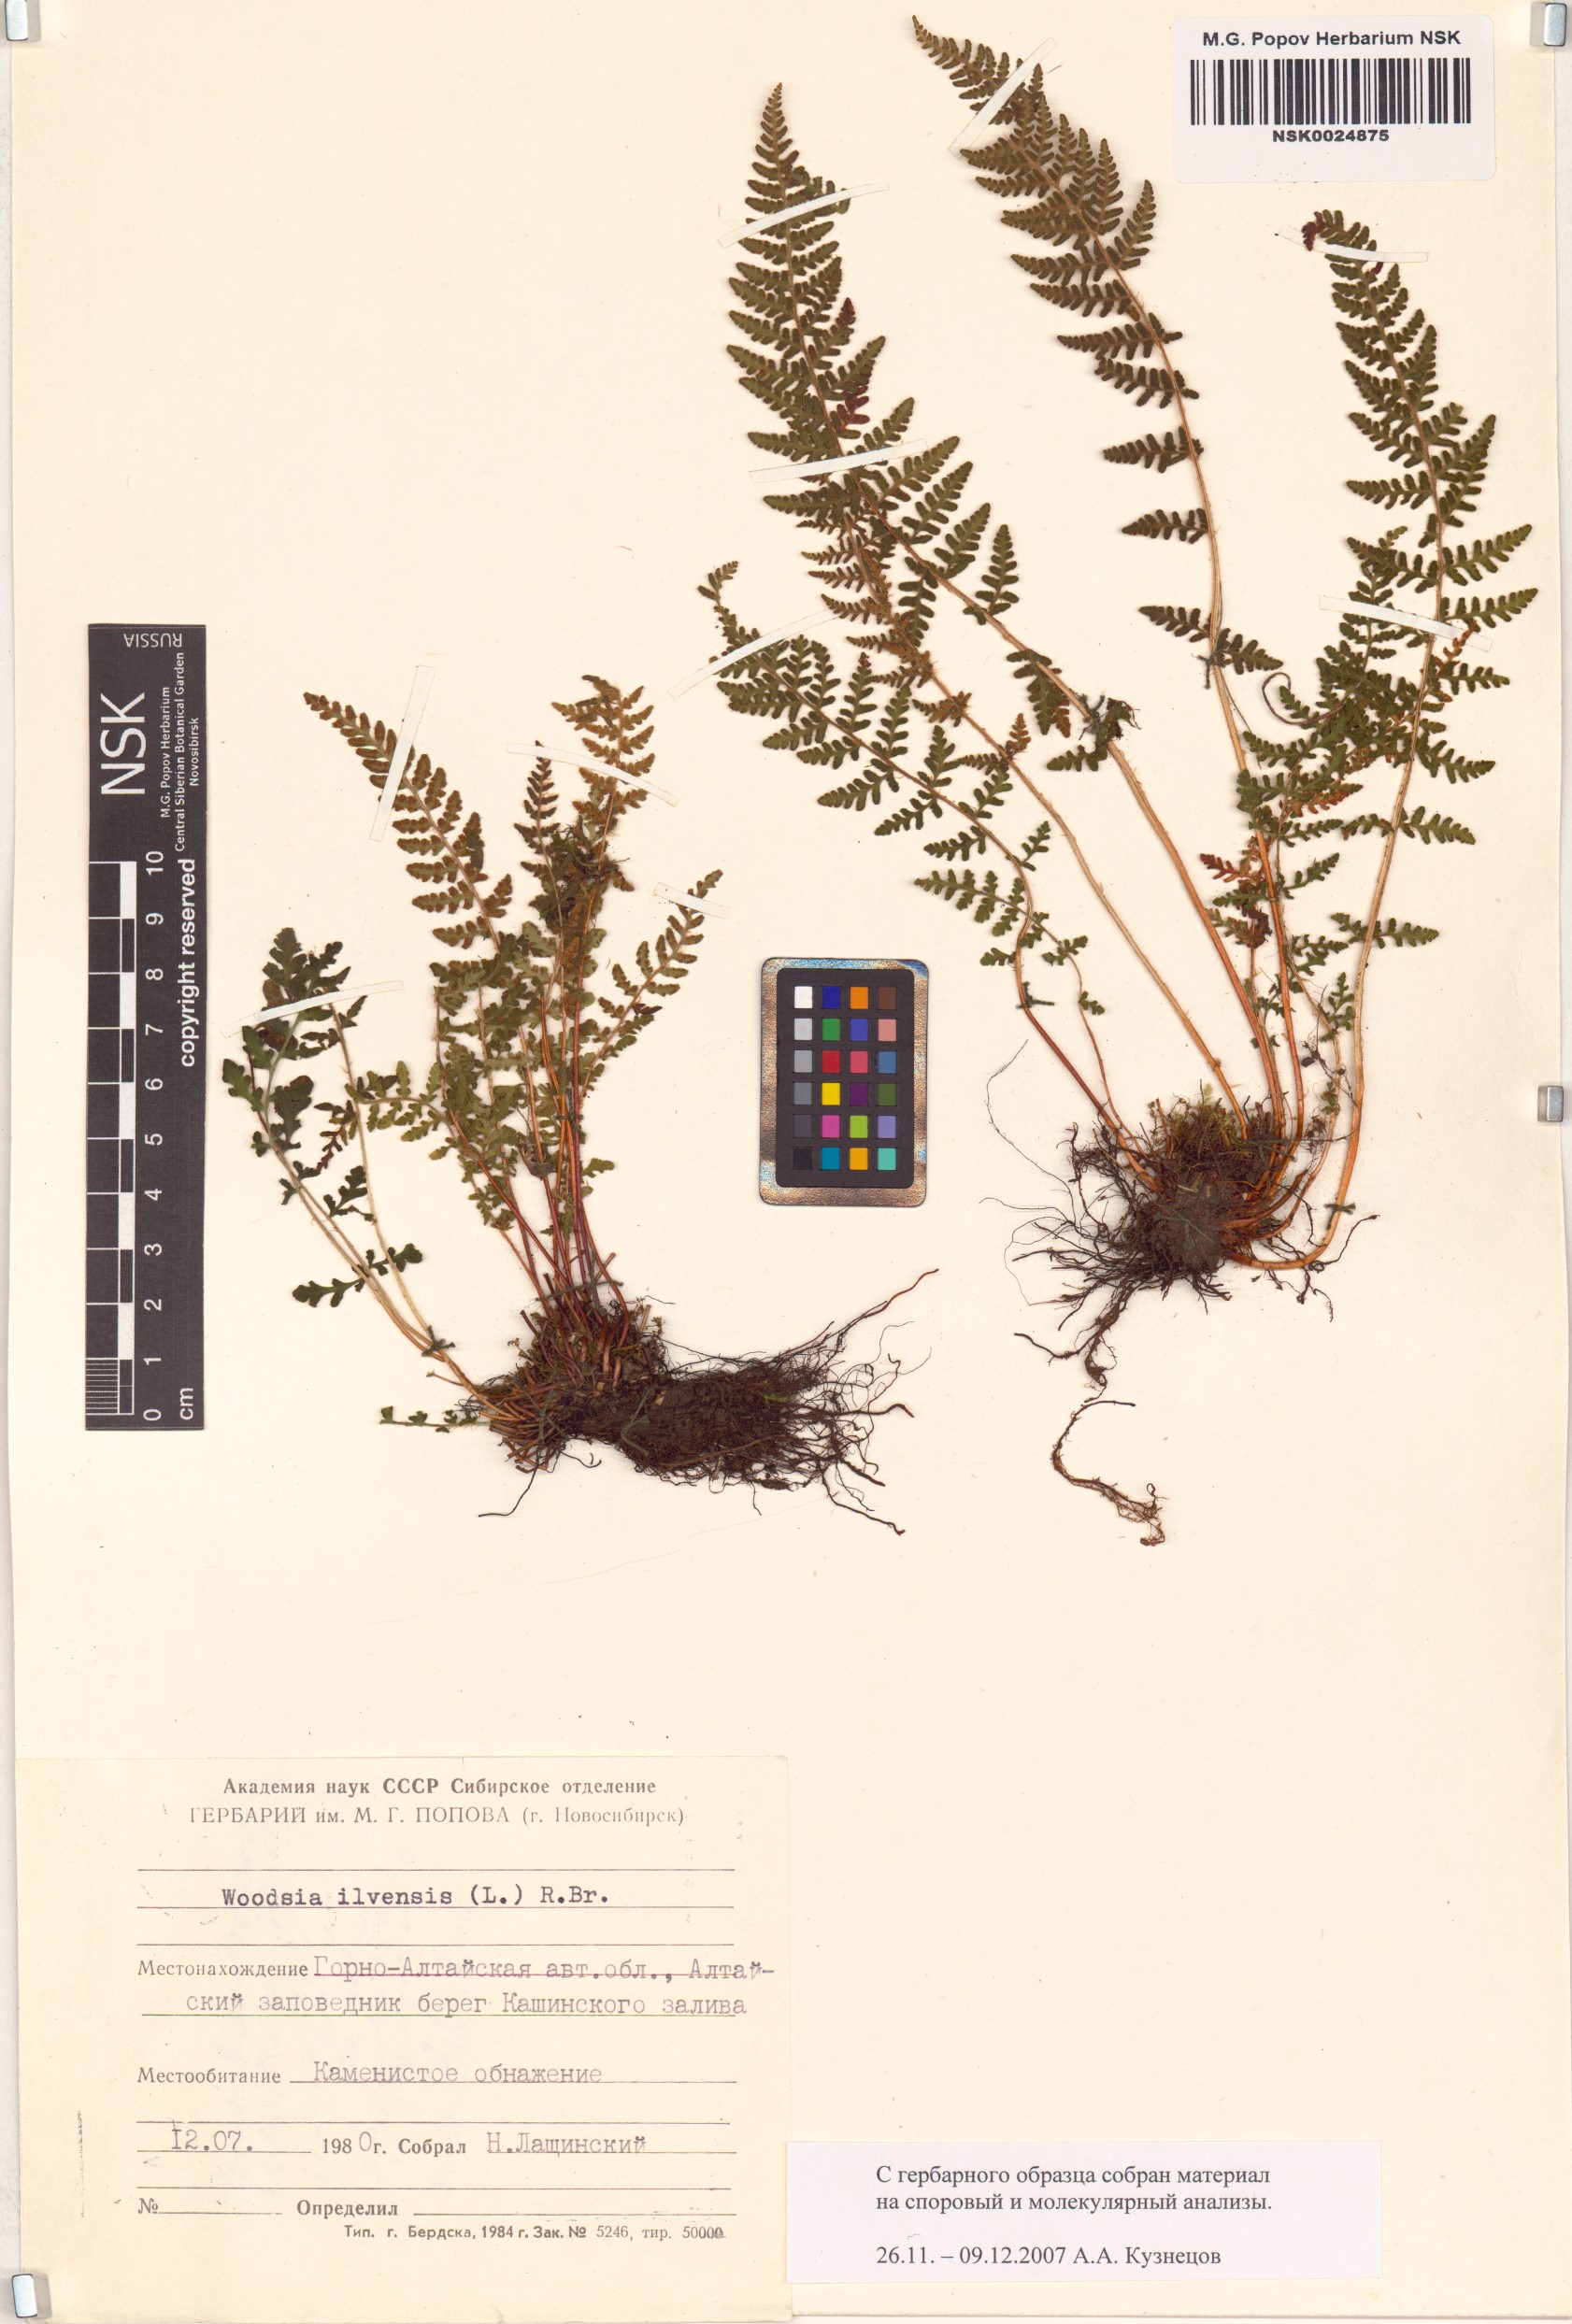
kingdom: Plantae
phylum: Tracheophyta
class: Polypodiopsida
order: Polypodiales
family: Woodsiaceae
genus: Woodsia
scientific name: Woodsia ilvensis
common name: Fragrant woodsia
